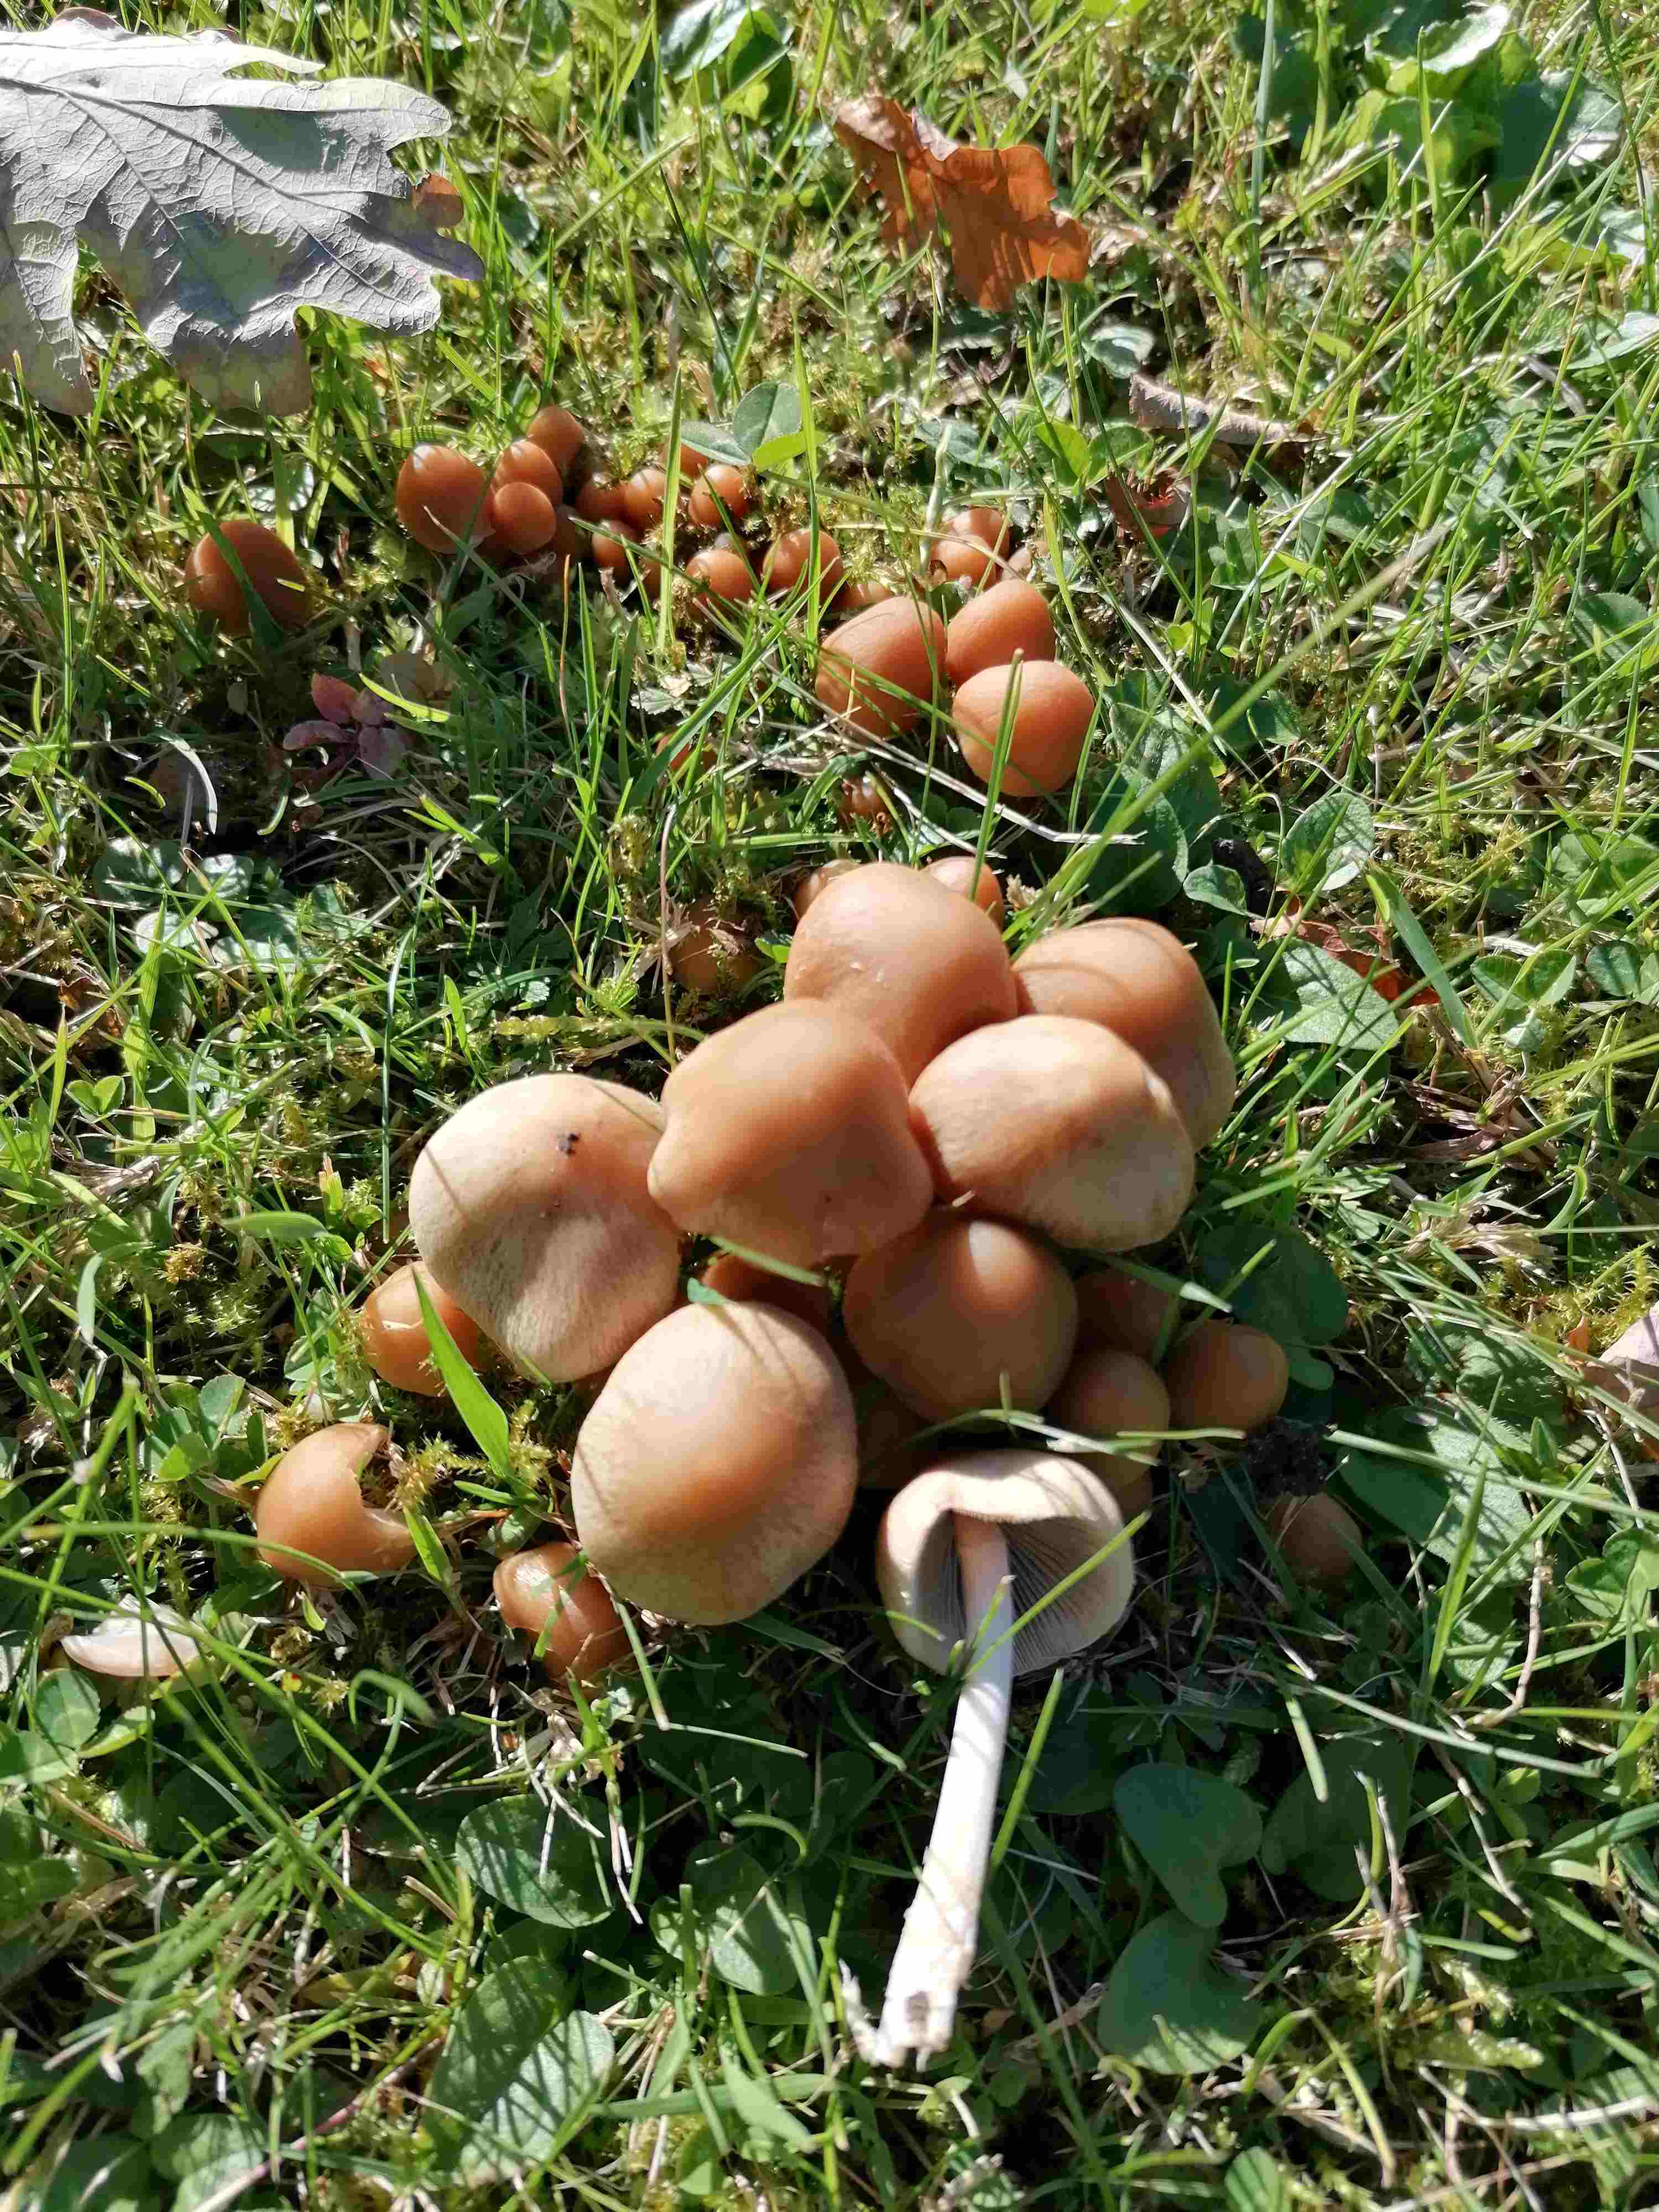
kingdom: Fungi
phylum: Basidiomycota
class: Agaricomycetes
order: Agaricales
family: Psathyrellaceae
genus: Britzelmayria
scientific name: Britzelmayria multipedata
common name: knippe-mørkhat
